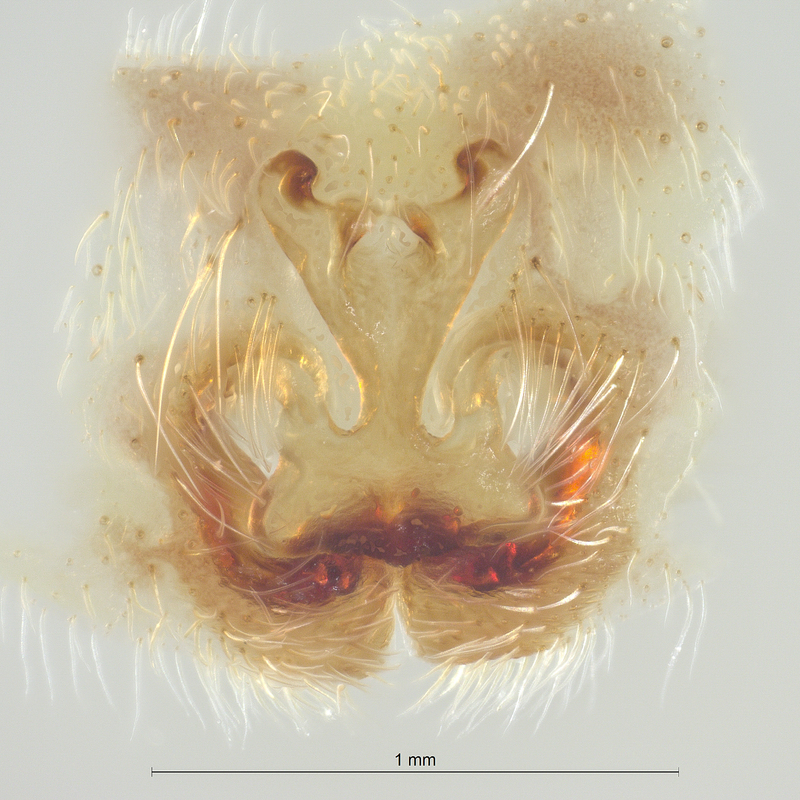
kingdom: Animalia
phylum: Arthropoda
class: Arachnida
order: Araneae
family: Pisauridae
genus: Pisaura
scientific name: Pisaura mirabilis
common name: Tent spider
